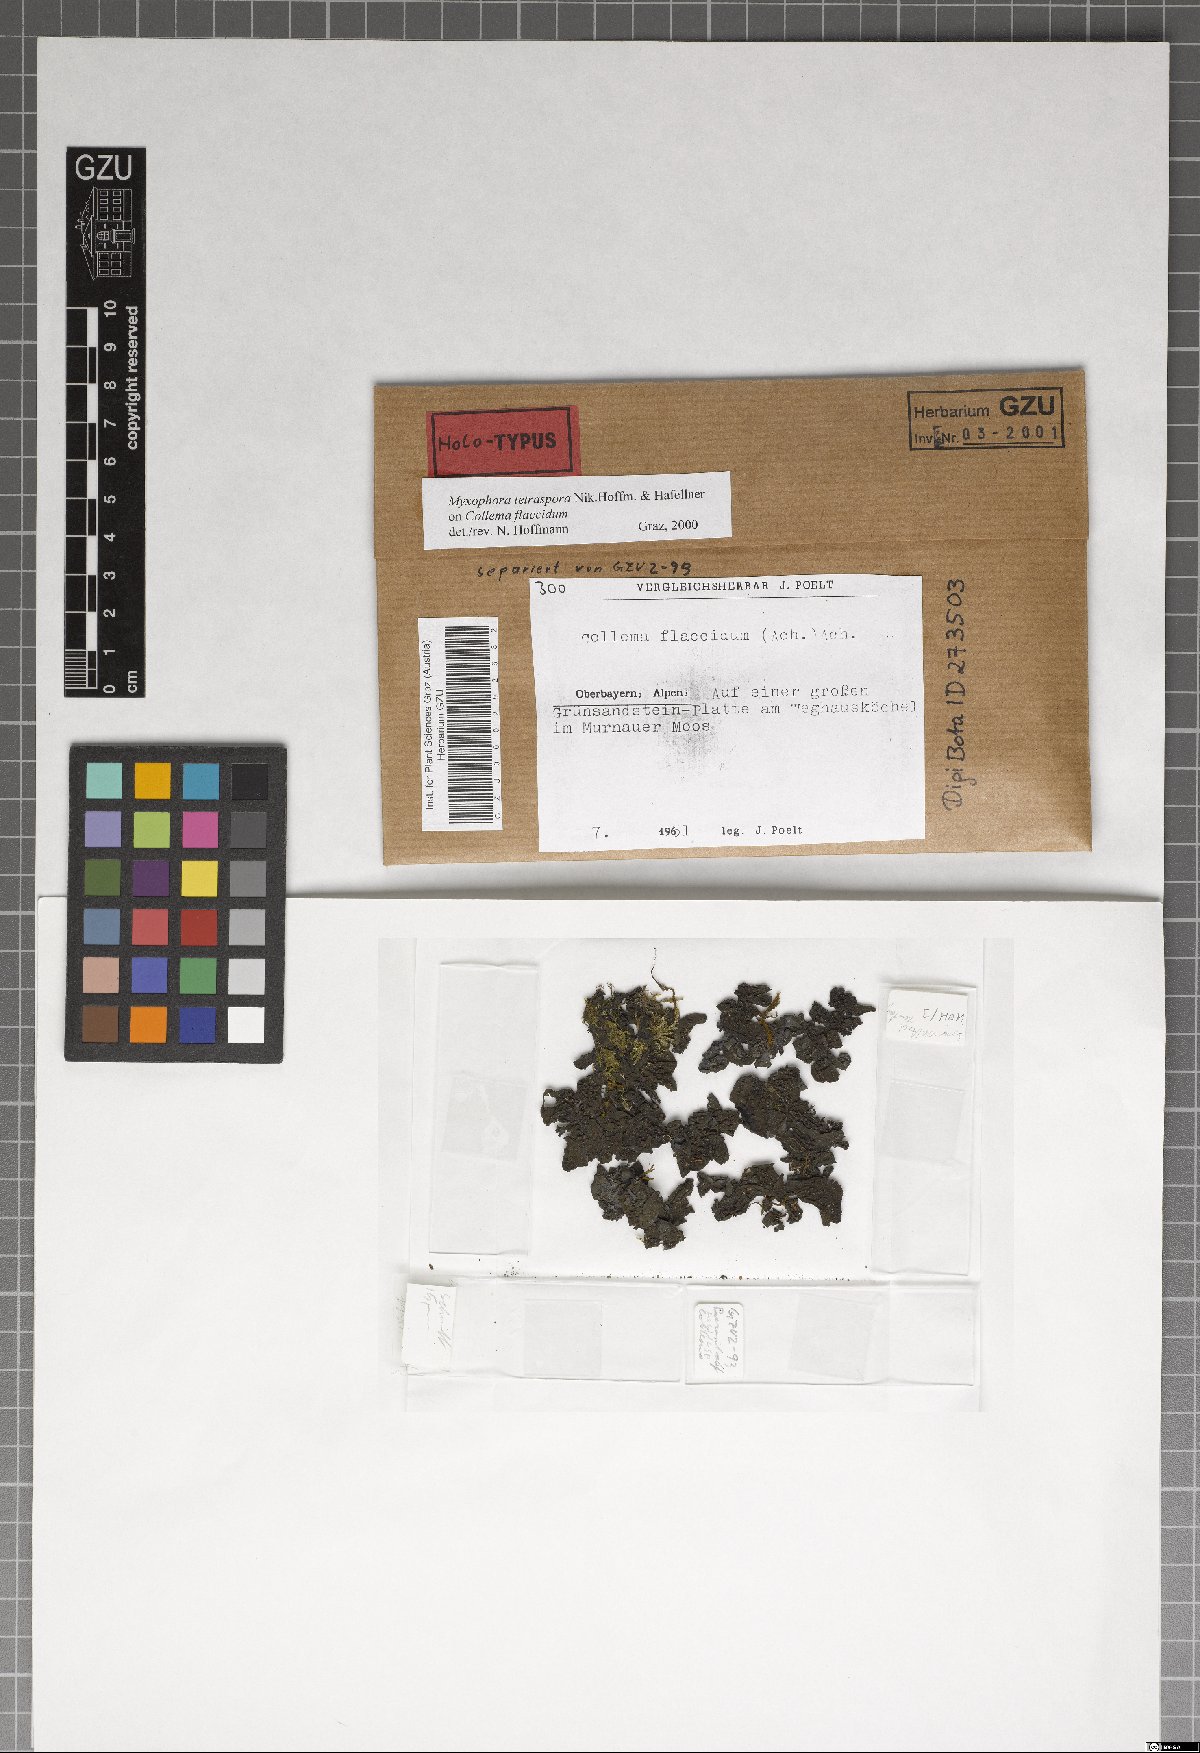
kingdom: Fungi
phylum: Ascomycota
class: Dothideomycetes
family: Pseudoperisporiaceae
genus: Myxophora
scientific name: Myxophora tetraspora
